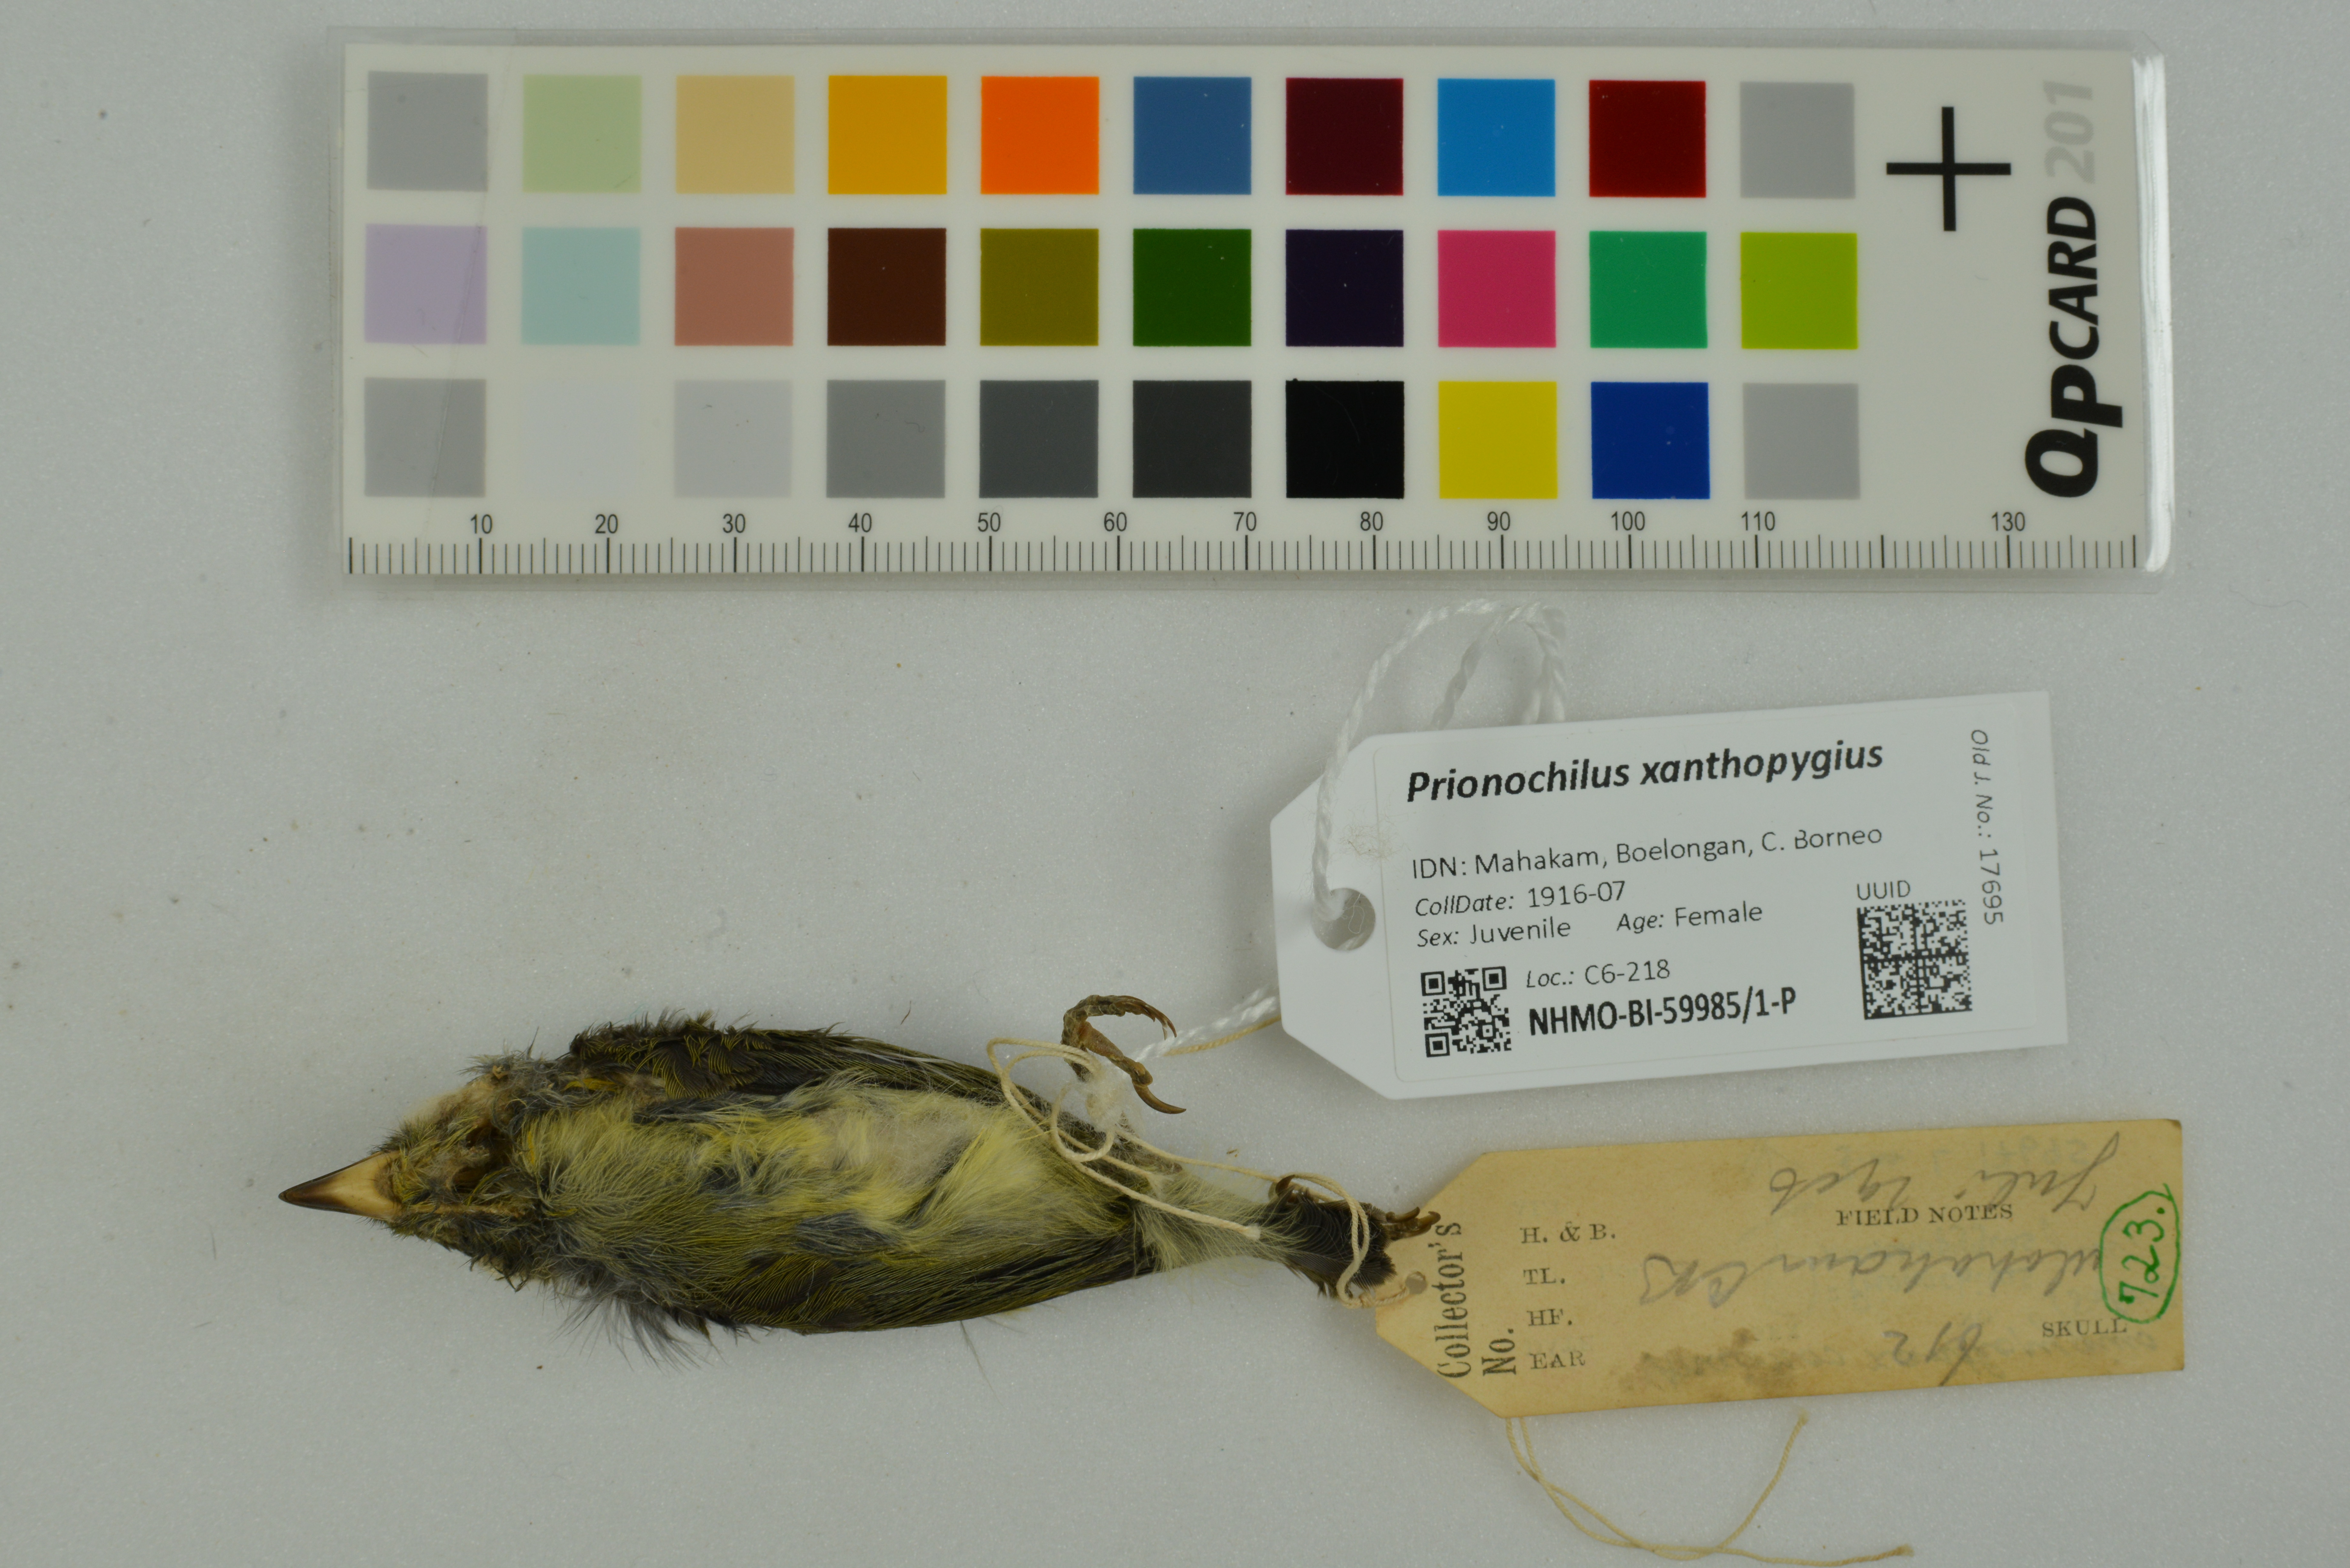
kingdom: Animalia
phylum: Chordata
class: Aves
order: Passeriformes
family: Dicaeidae
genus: Prionochilus
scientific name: Prionochilus xanthopygius
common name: Yellow-rumped flowerpecker
